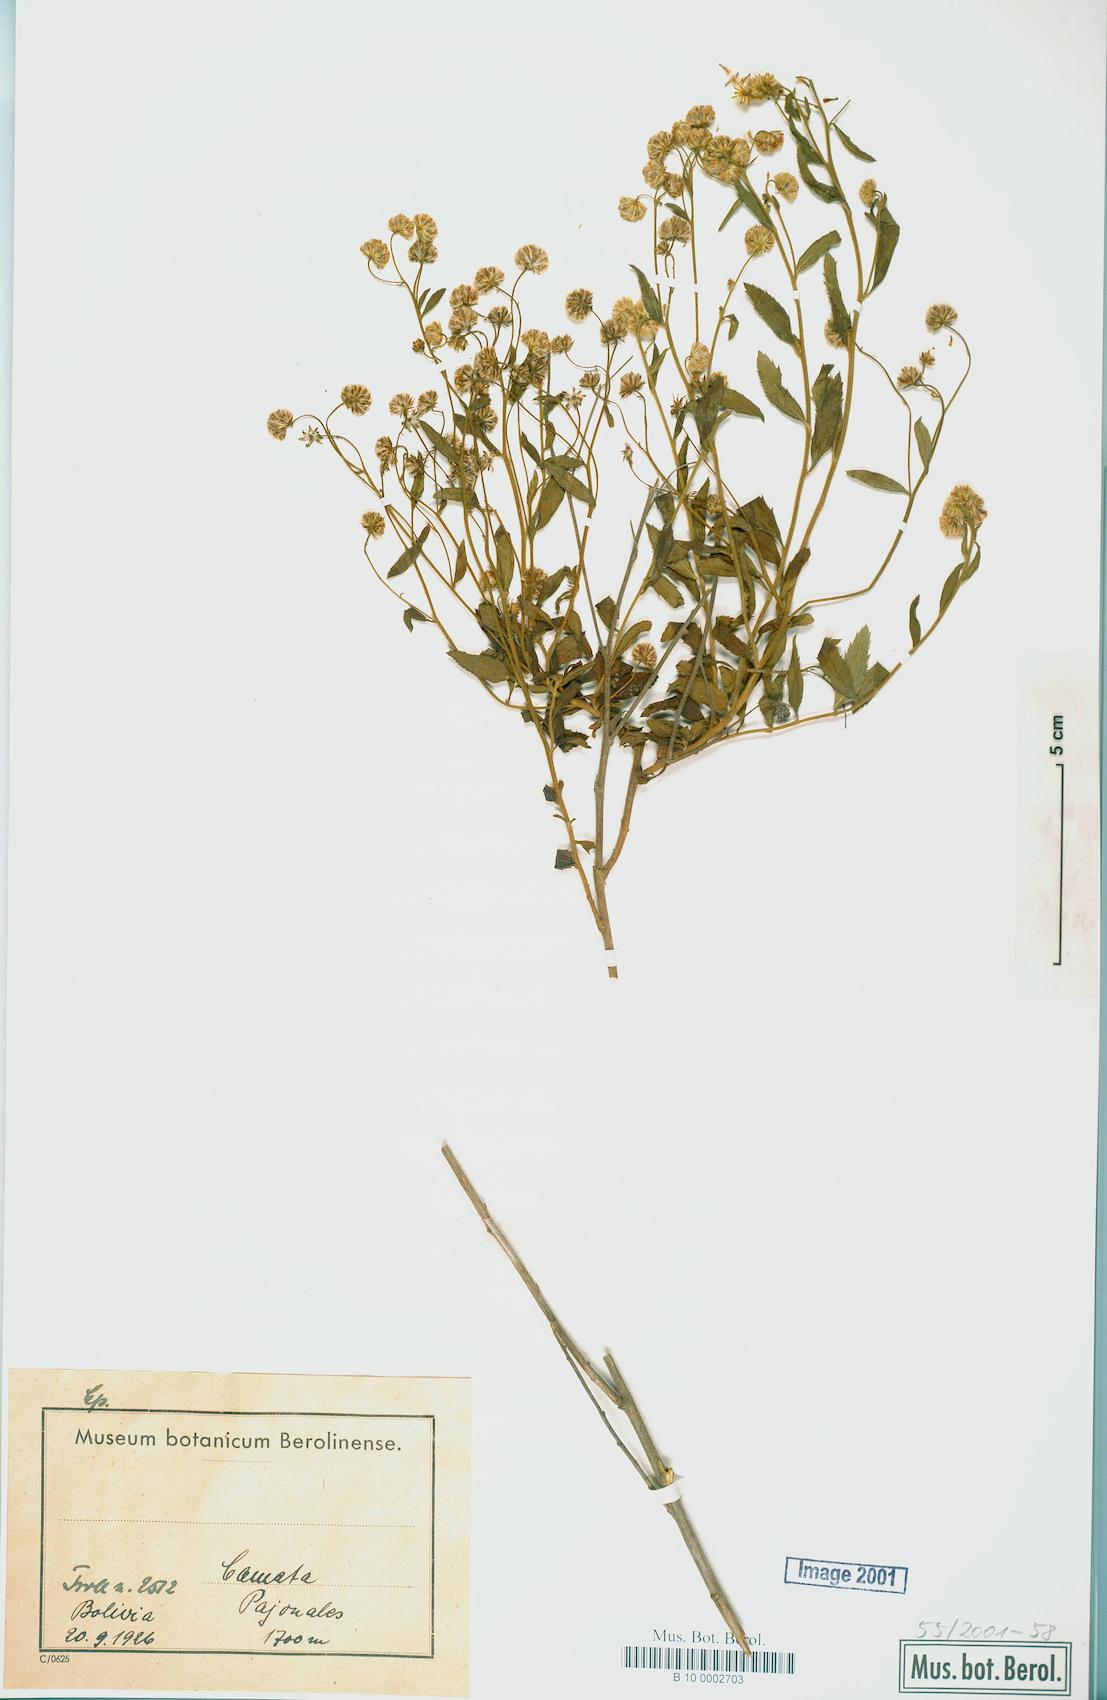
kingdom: Plantae
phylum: Tracheophyta
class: Magnoliopsida
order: Asterales
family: Asteraceae
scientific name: Asteraceae
